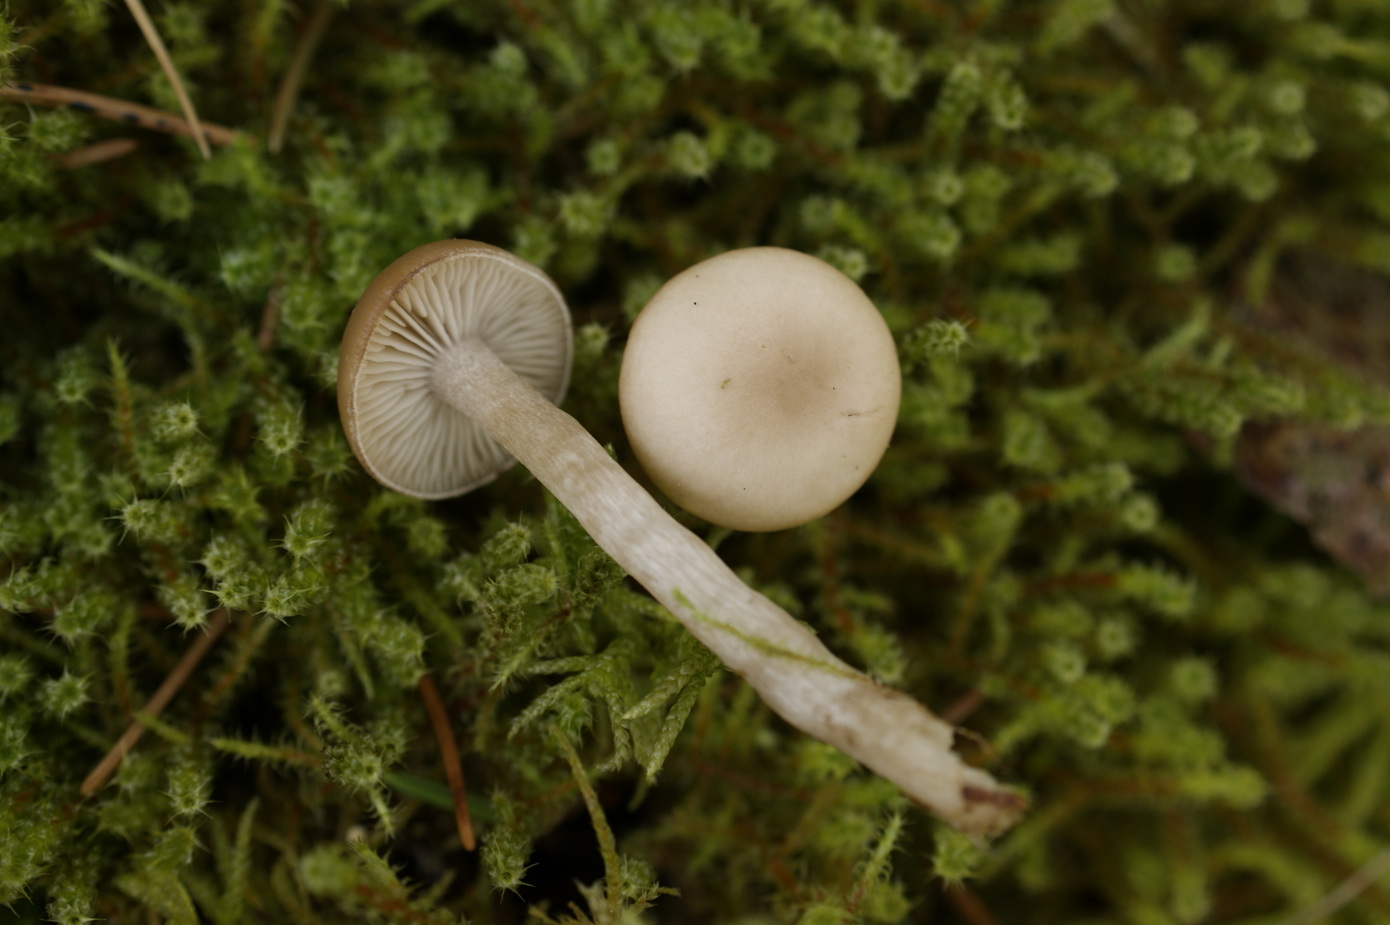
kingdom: Fungi
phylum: Basidiomycota
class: Agaricomycetes
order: Agaricales
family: Tricholomataceae
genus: Clitocybe
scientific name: Clitocybe obsoleta
